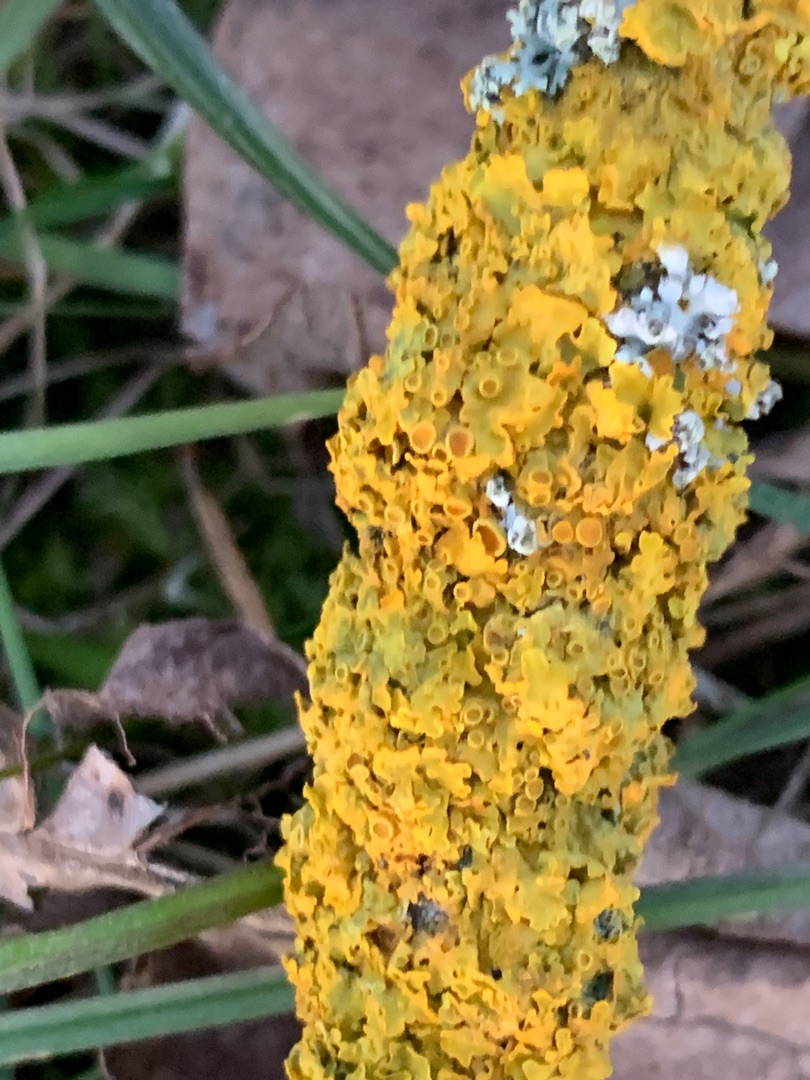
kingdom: Fungi
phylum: Ascomycota
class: Lecanoromycetes
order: Teloschistales
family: Teloschistaceae
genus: Xanthoria
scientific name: Xanthoria parietina
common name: Almindelig væggelav
